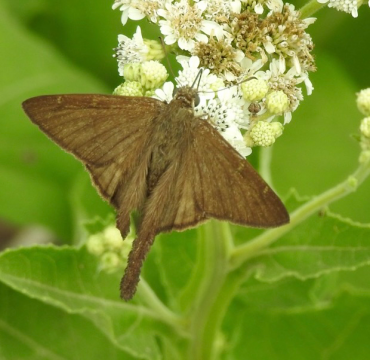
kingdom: Animalia
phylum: Arthropoda
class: Insecta
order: Lepidoptera
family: Hesperiidae
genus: Urbanus
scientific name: Urbanus procne
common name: Brown Longtail
